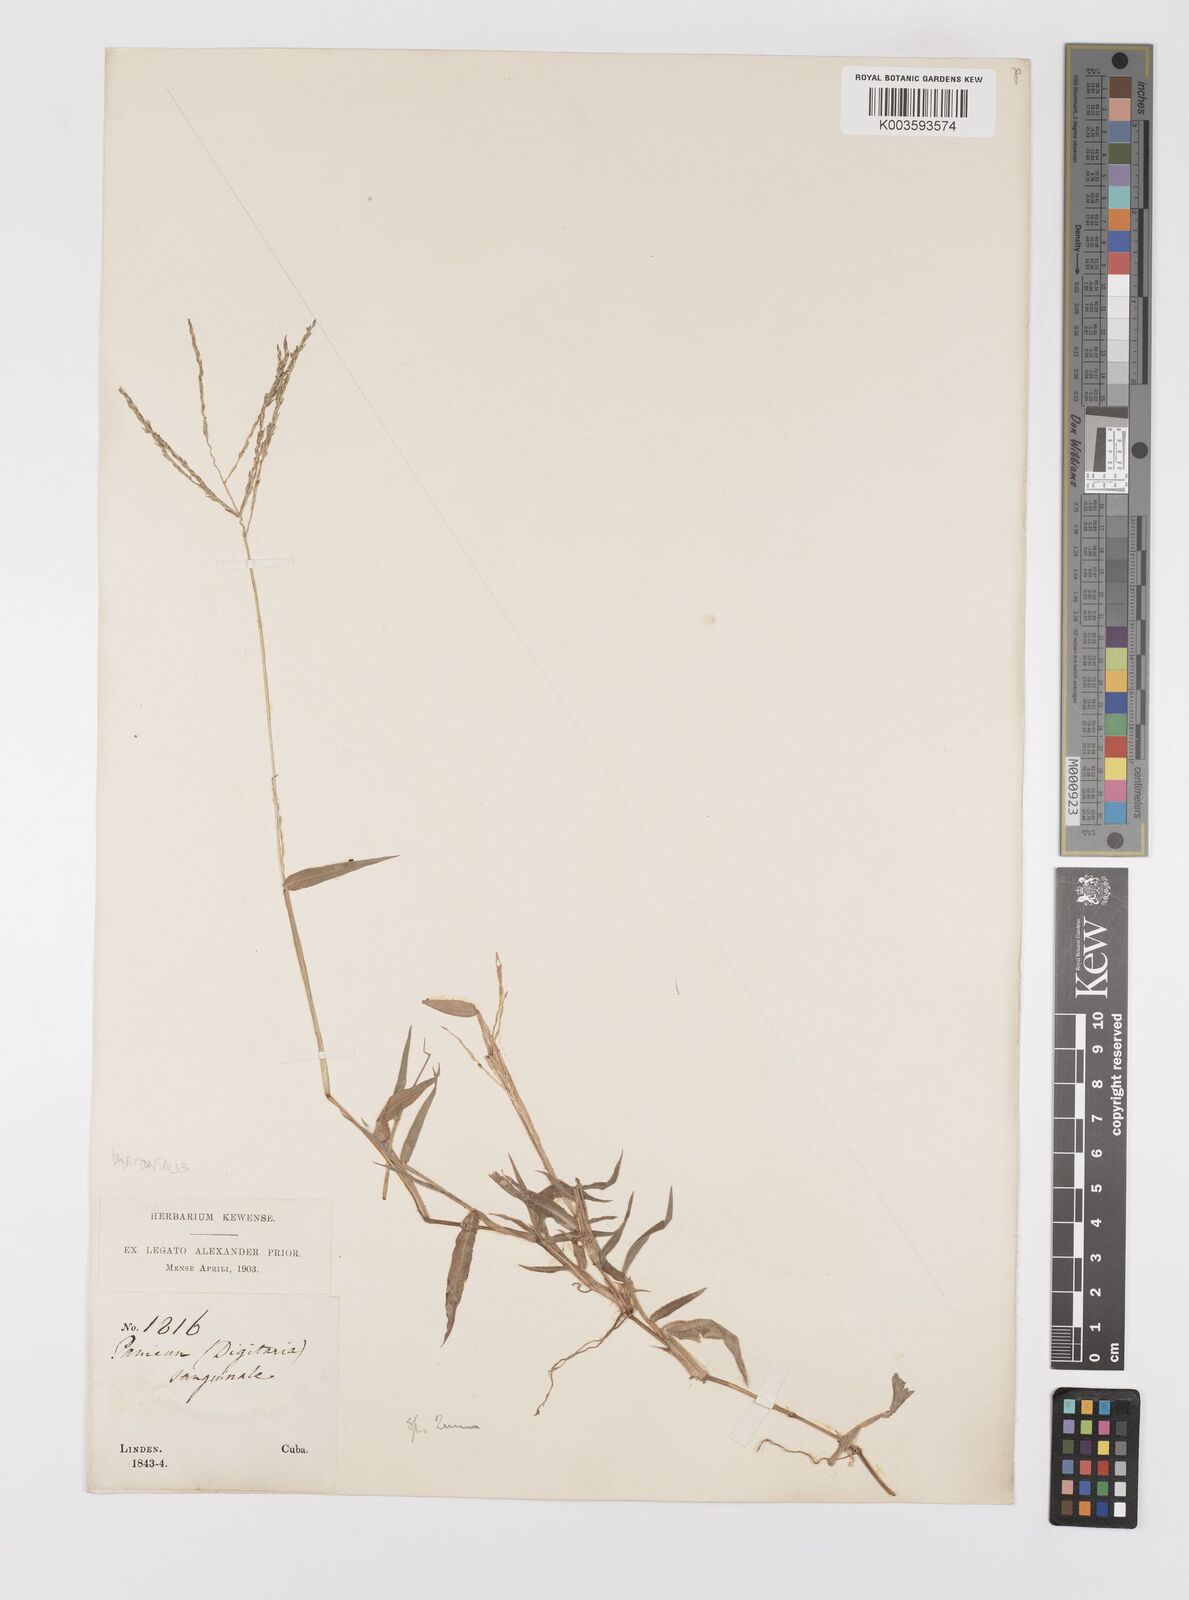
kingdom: Plantae
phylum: Tracheophyta
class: Liliopsida
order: Poales
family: Poaceae
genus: Digitaria
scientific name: Digitaria sanguinalis
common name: Hairy crabgrass
